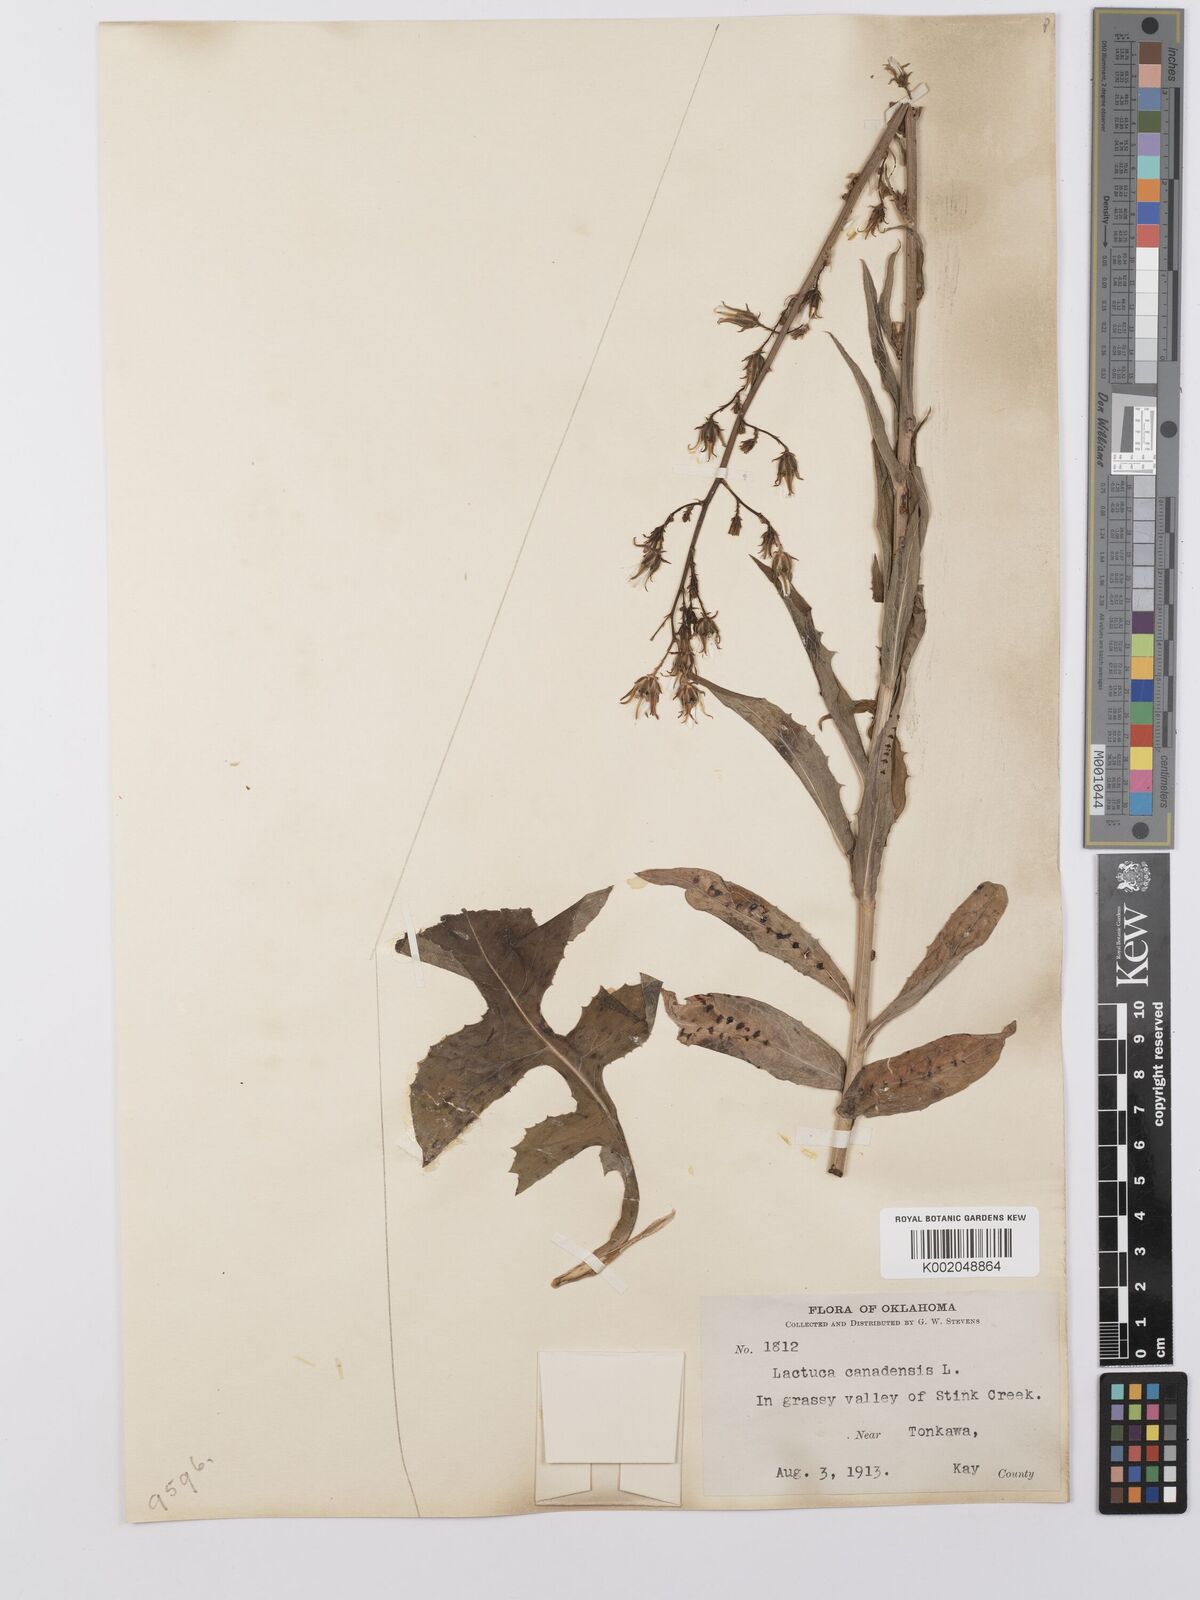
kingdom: Plantae
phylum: Tracheophyta
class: Magnoliopsida
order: Asterales
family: Asteraceae
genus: Lactuca
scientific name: Lactuca canadensis
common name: Canada lettuce
